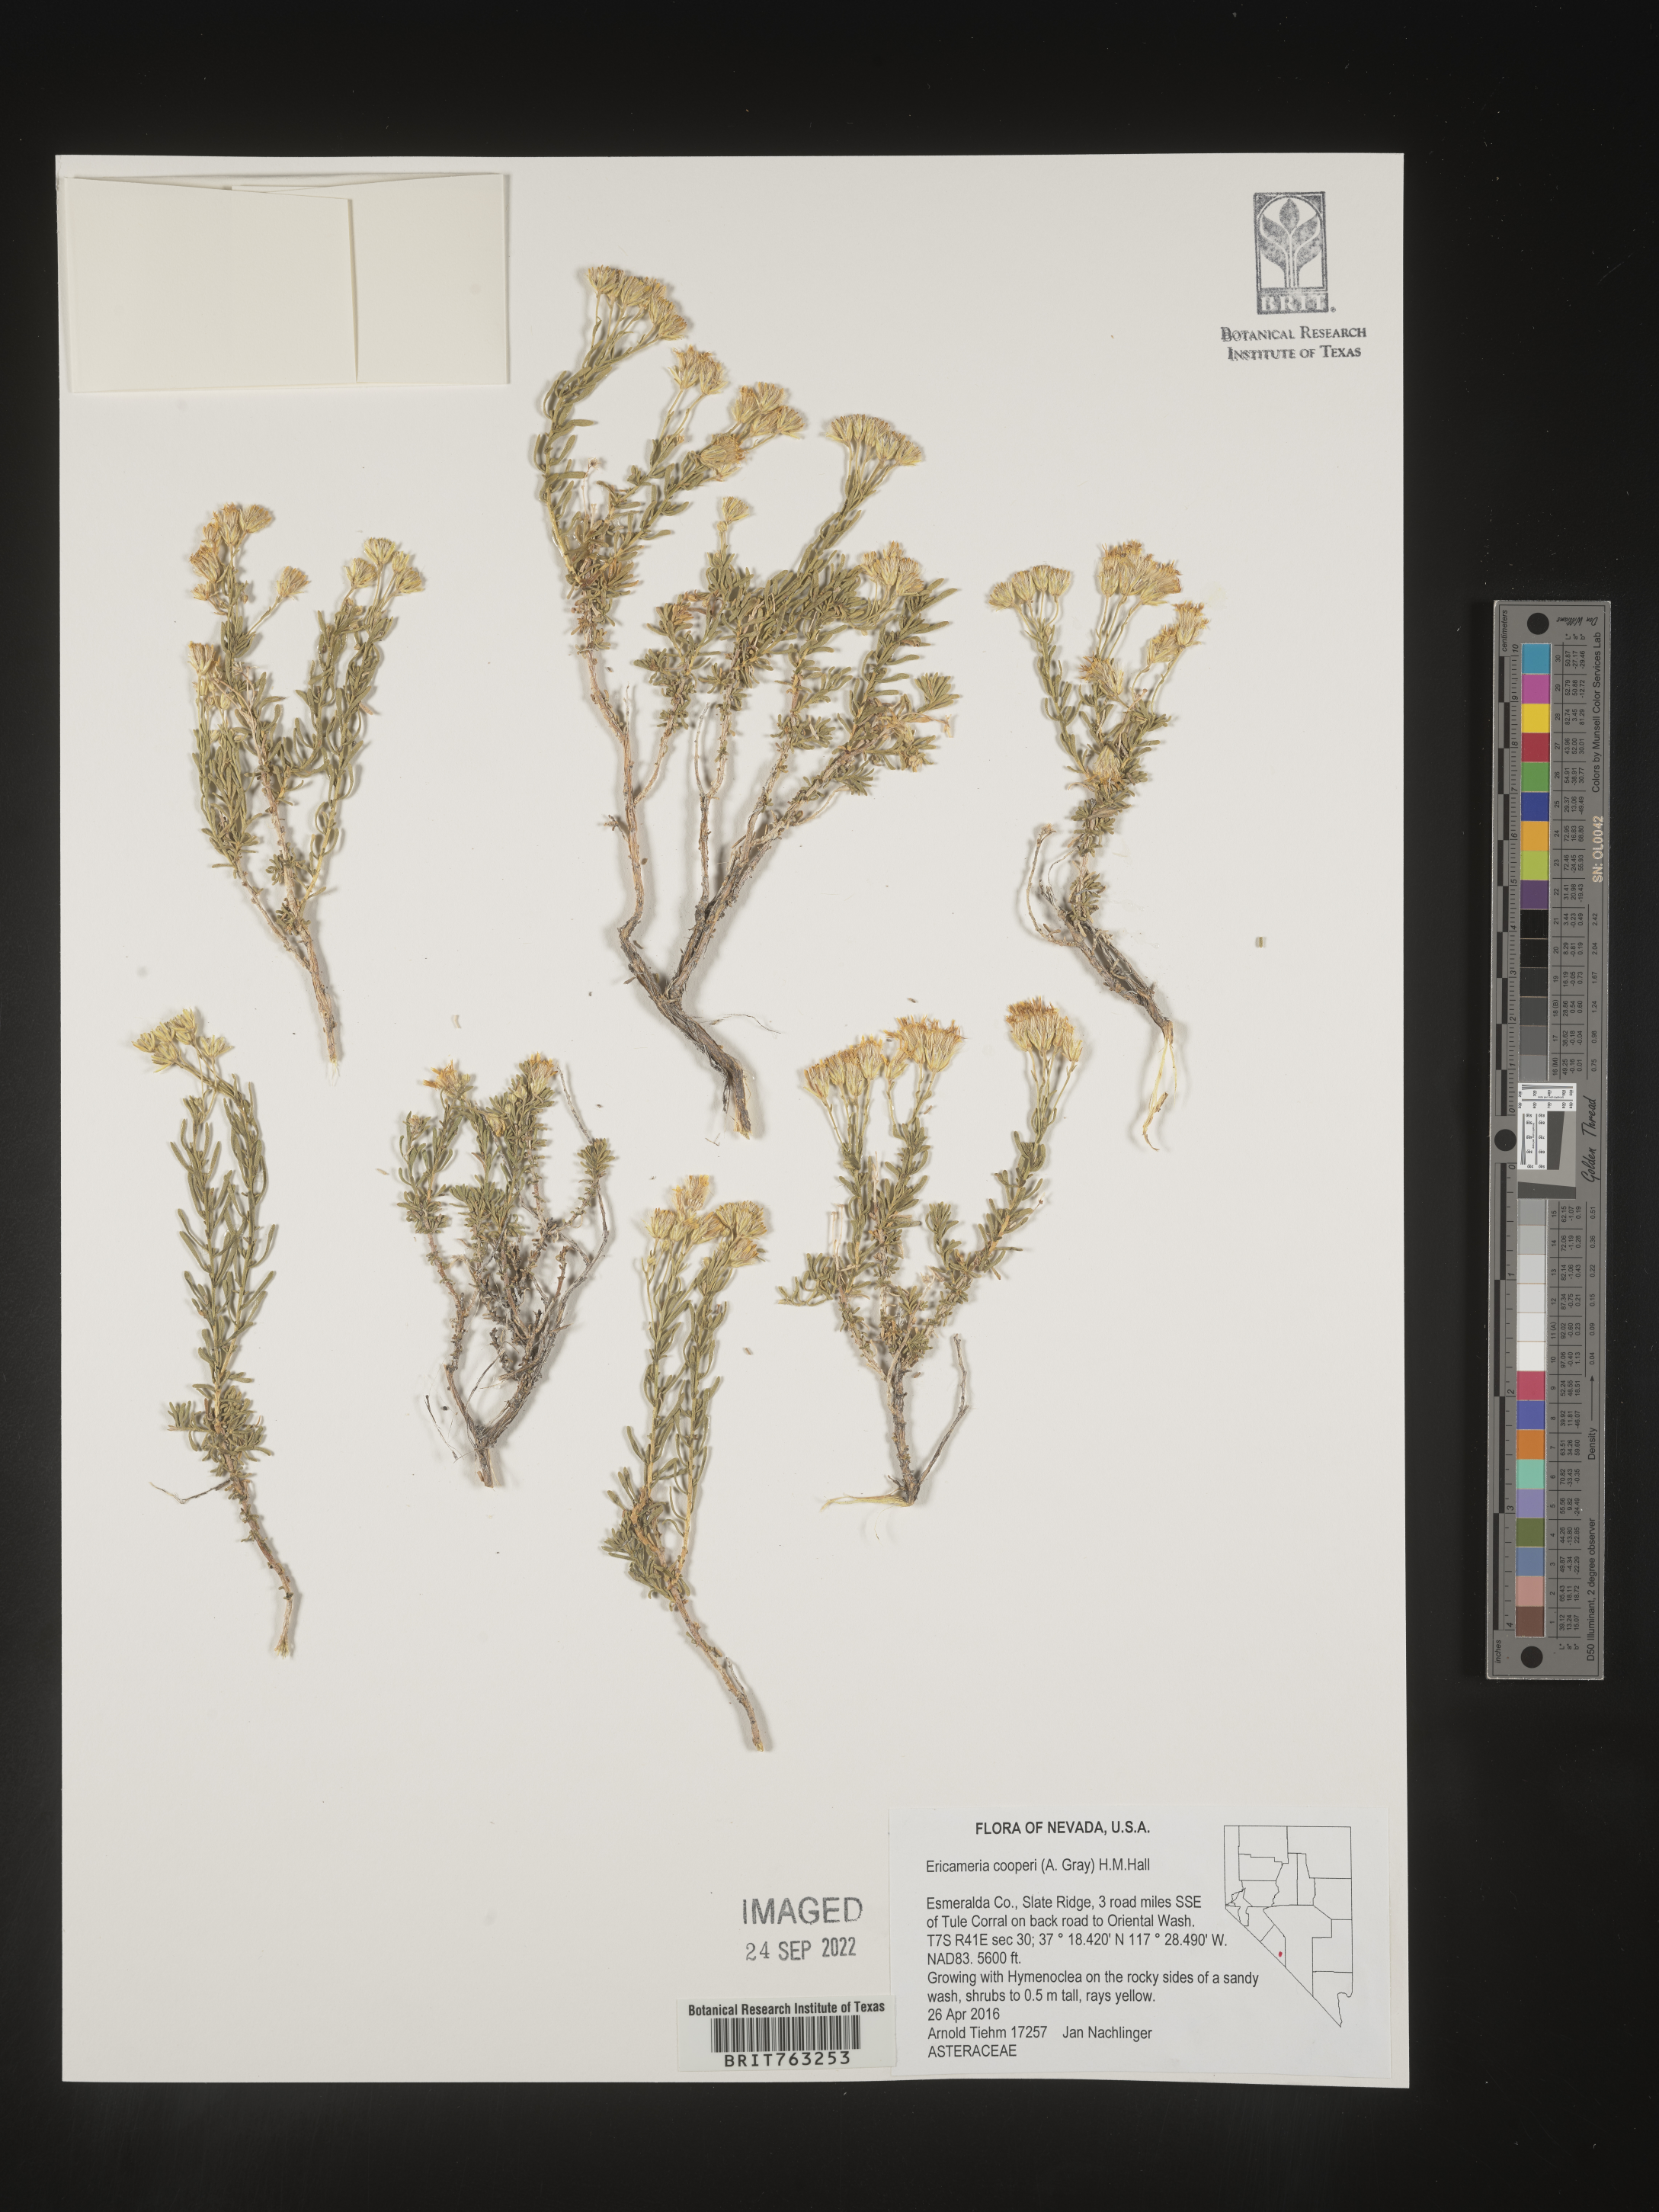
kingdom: Plantae
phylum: Tracheophyta
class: Magnoliopsida
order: Asterales
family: Asteraceae
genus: Ericameria
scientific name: Ericameria cooperi
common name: Cooper's goldenbush
